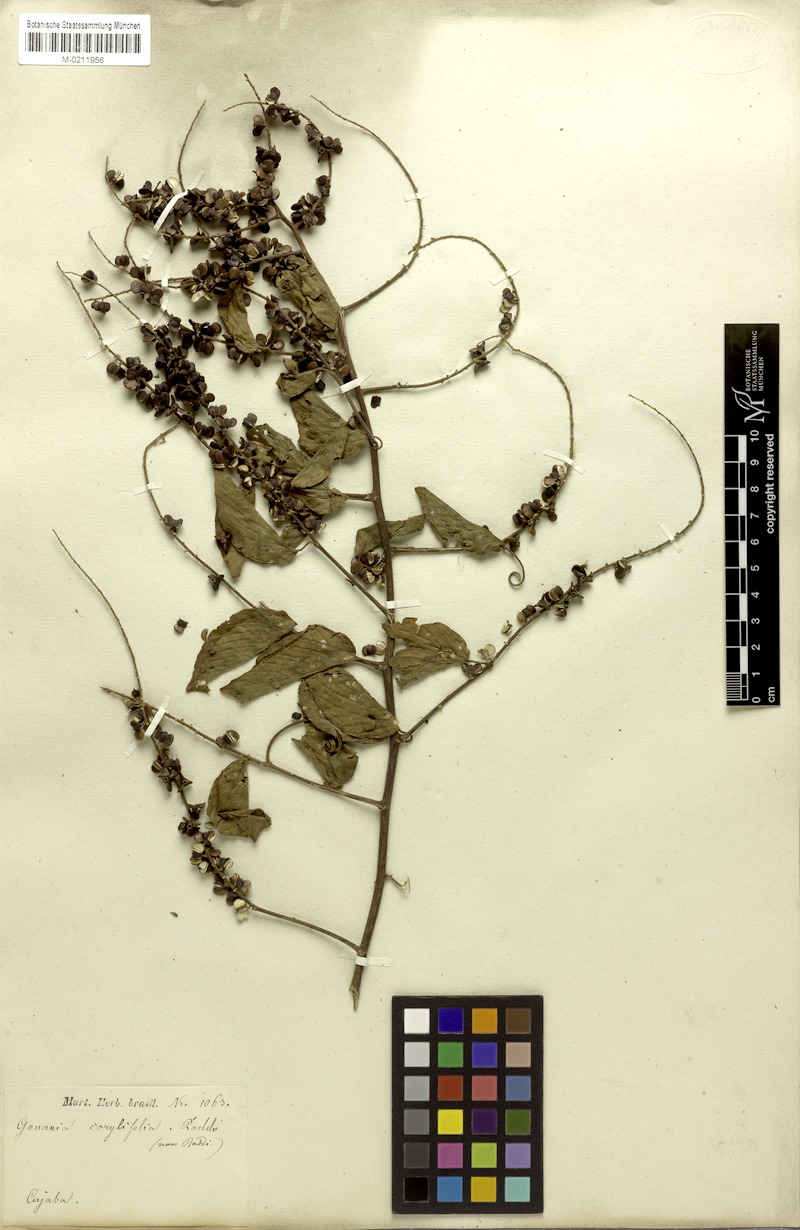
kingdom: Plantae
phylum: Tracheophyta
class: Magnoliopsida
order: Rosales
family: Rhamnaceae
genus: Gouania
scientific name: Gouania corylifolia
